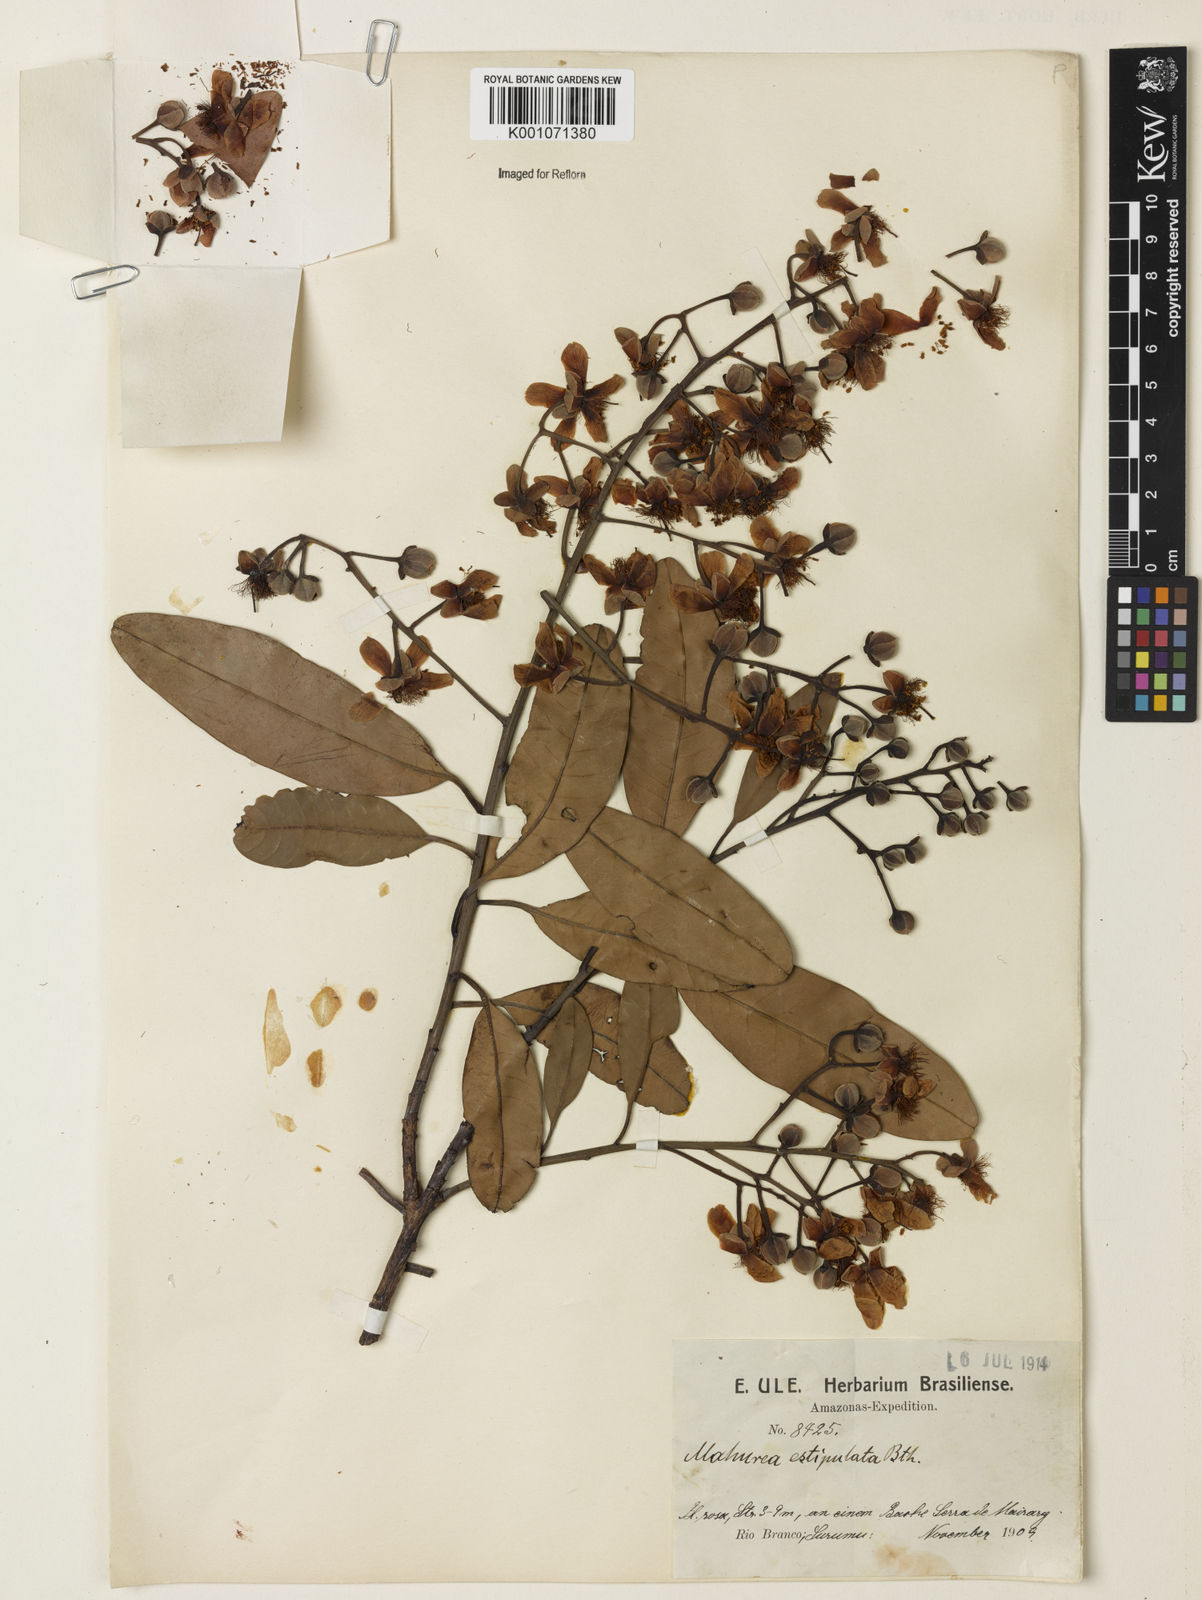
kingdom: Plantae
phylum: Tracheophyta
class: Magnoliopsida
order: Malpighiales
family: Calophyllaceae
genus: Mahurea
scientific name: Mahurea exstipulata
